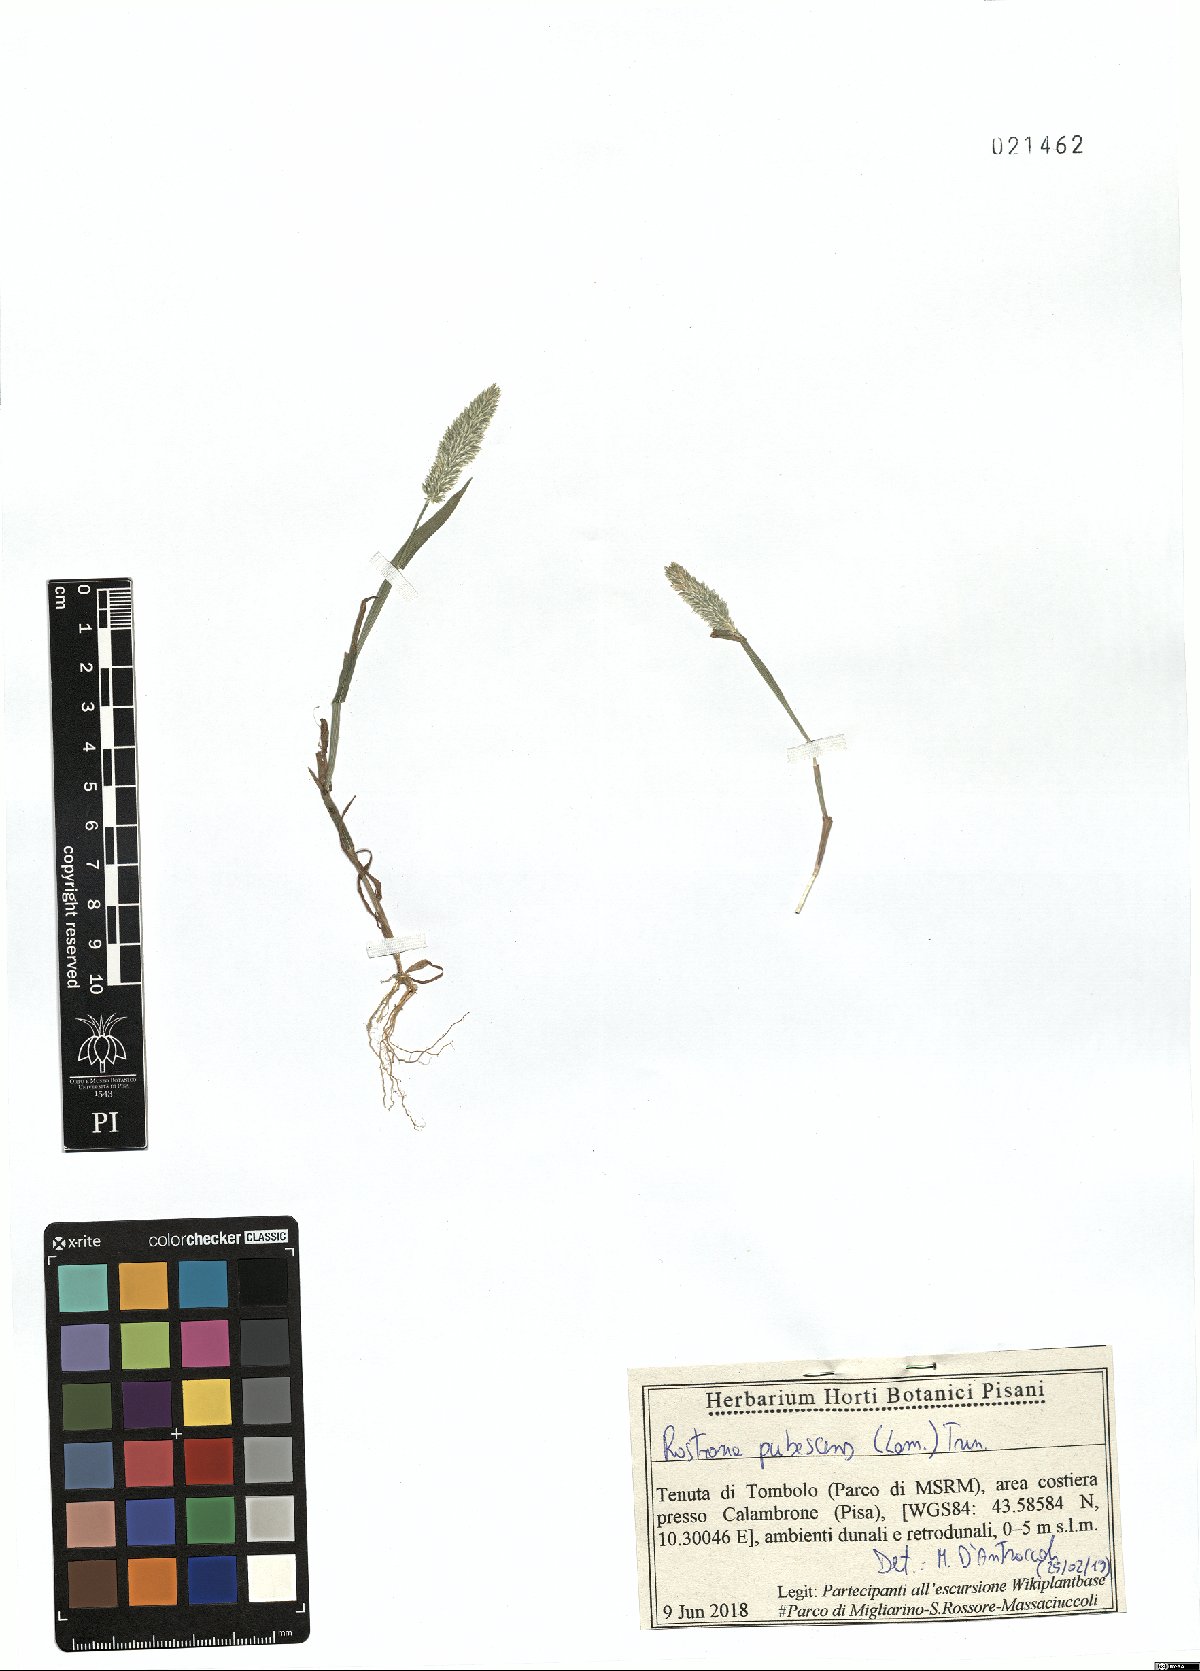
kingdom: Plantae
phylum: Tracheophyta
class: Liliopsida
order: Poales
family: Poaceae
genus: Rostraria
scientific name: Rostraria cristata
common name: Mediterranean hair-grass
